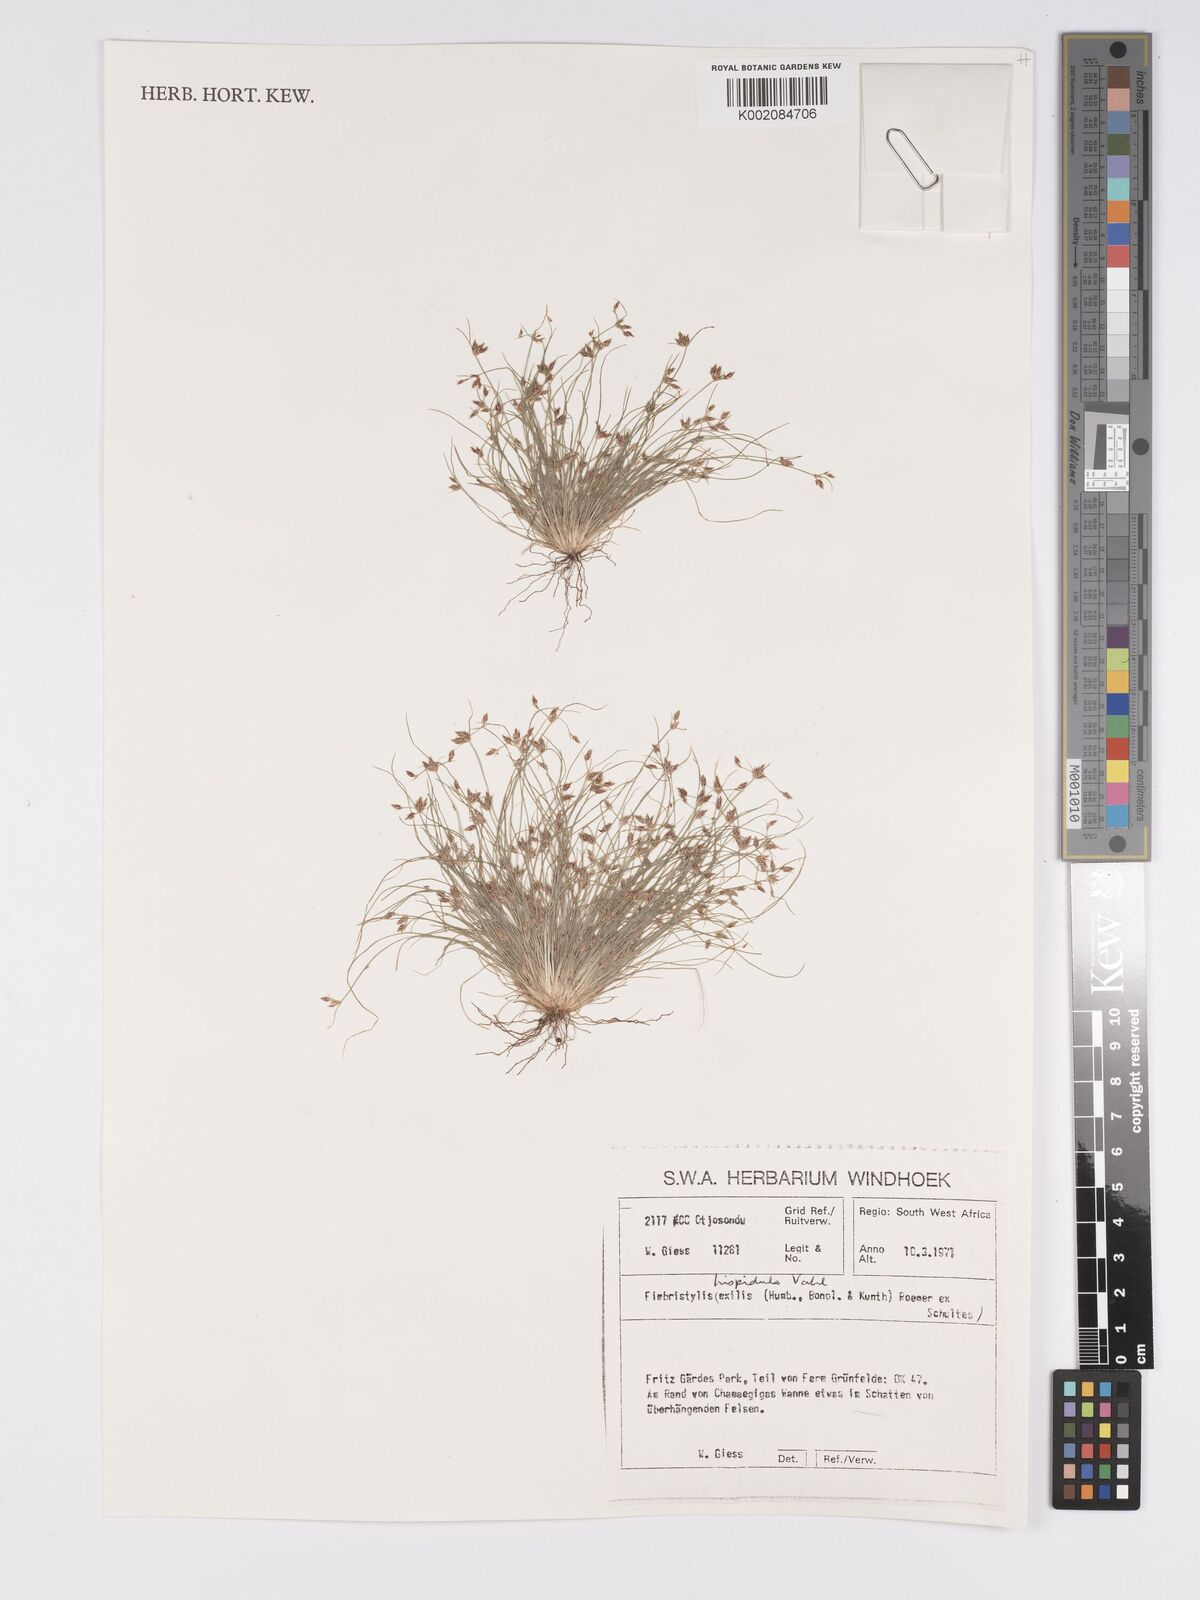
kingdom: Plantae
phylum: Tracheophyta
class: Liliopsida
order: Poales
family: Cyperaceae
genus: Bulbostylis
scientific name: Bulbostylis hispidula
